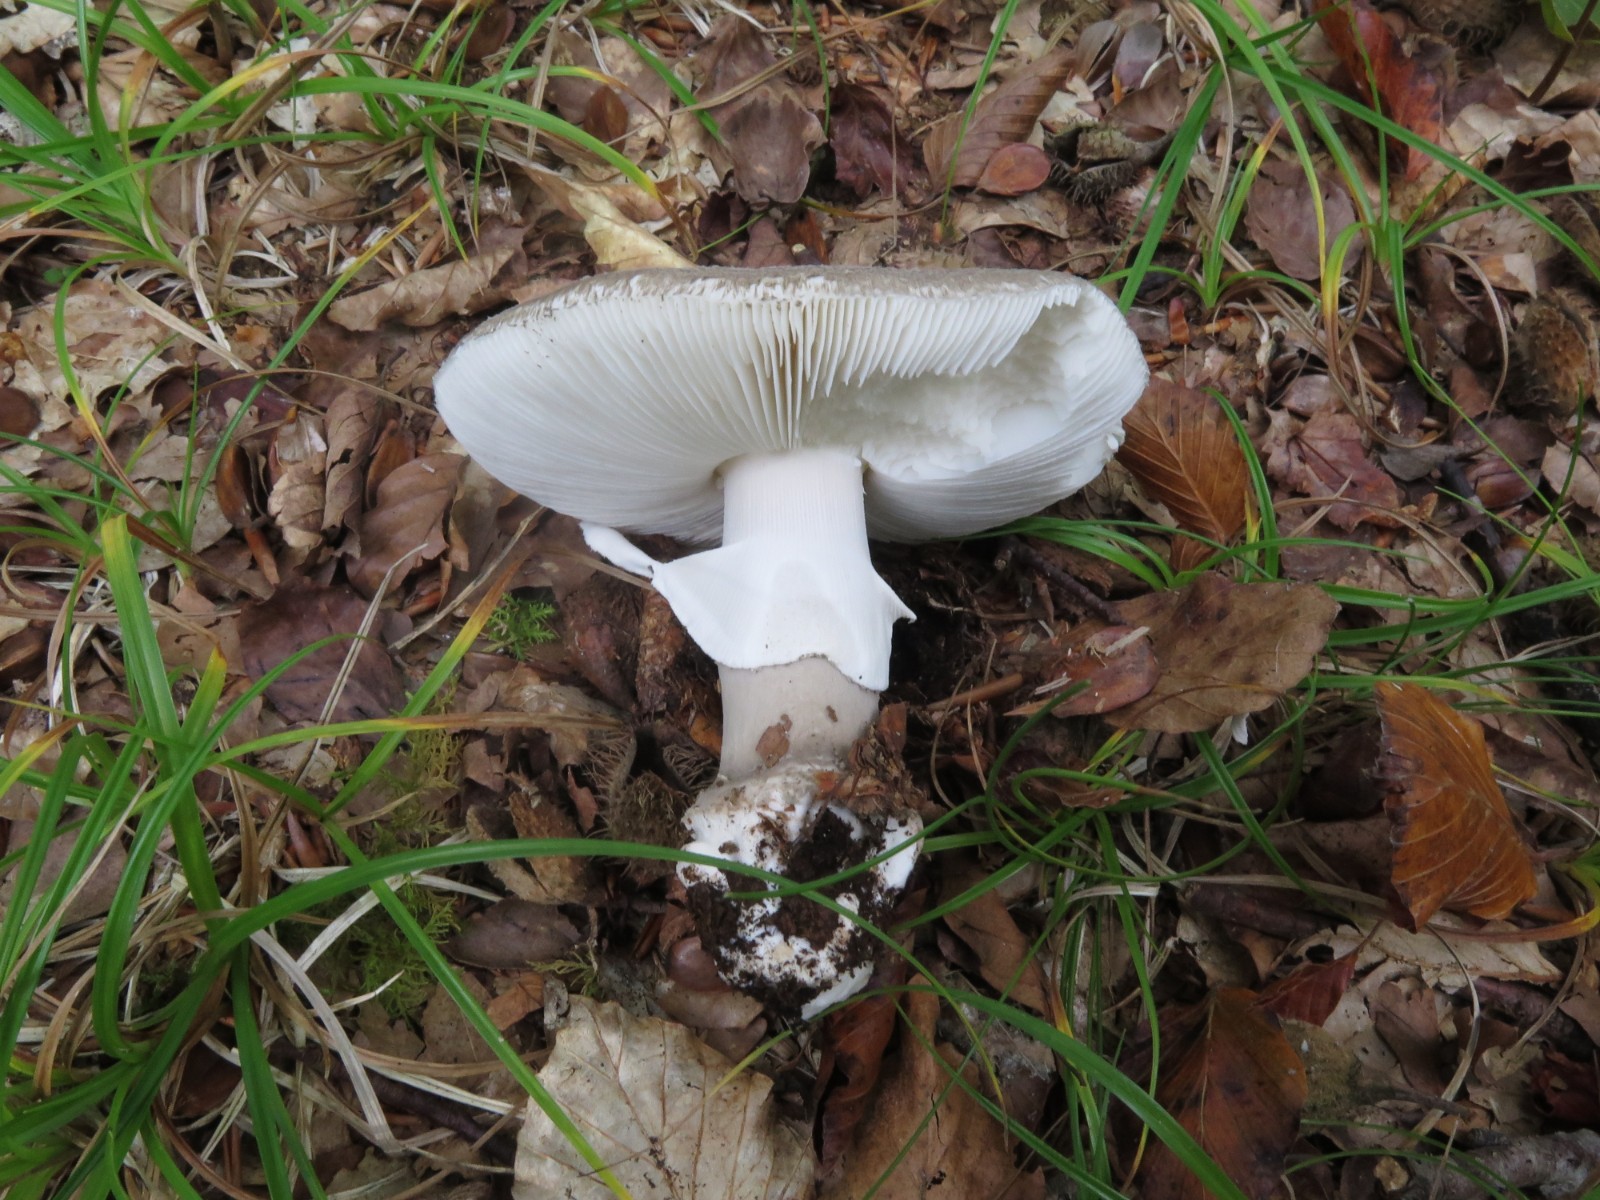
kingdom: Fungi
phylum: Basidiomycota
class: Agaricomycetes
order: Agaricales
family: Amanitaceae
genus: Amanita
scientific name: Amanita
